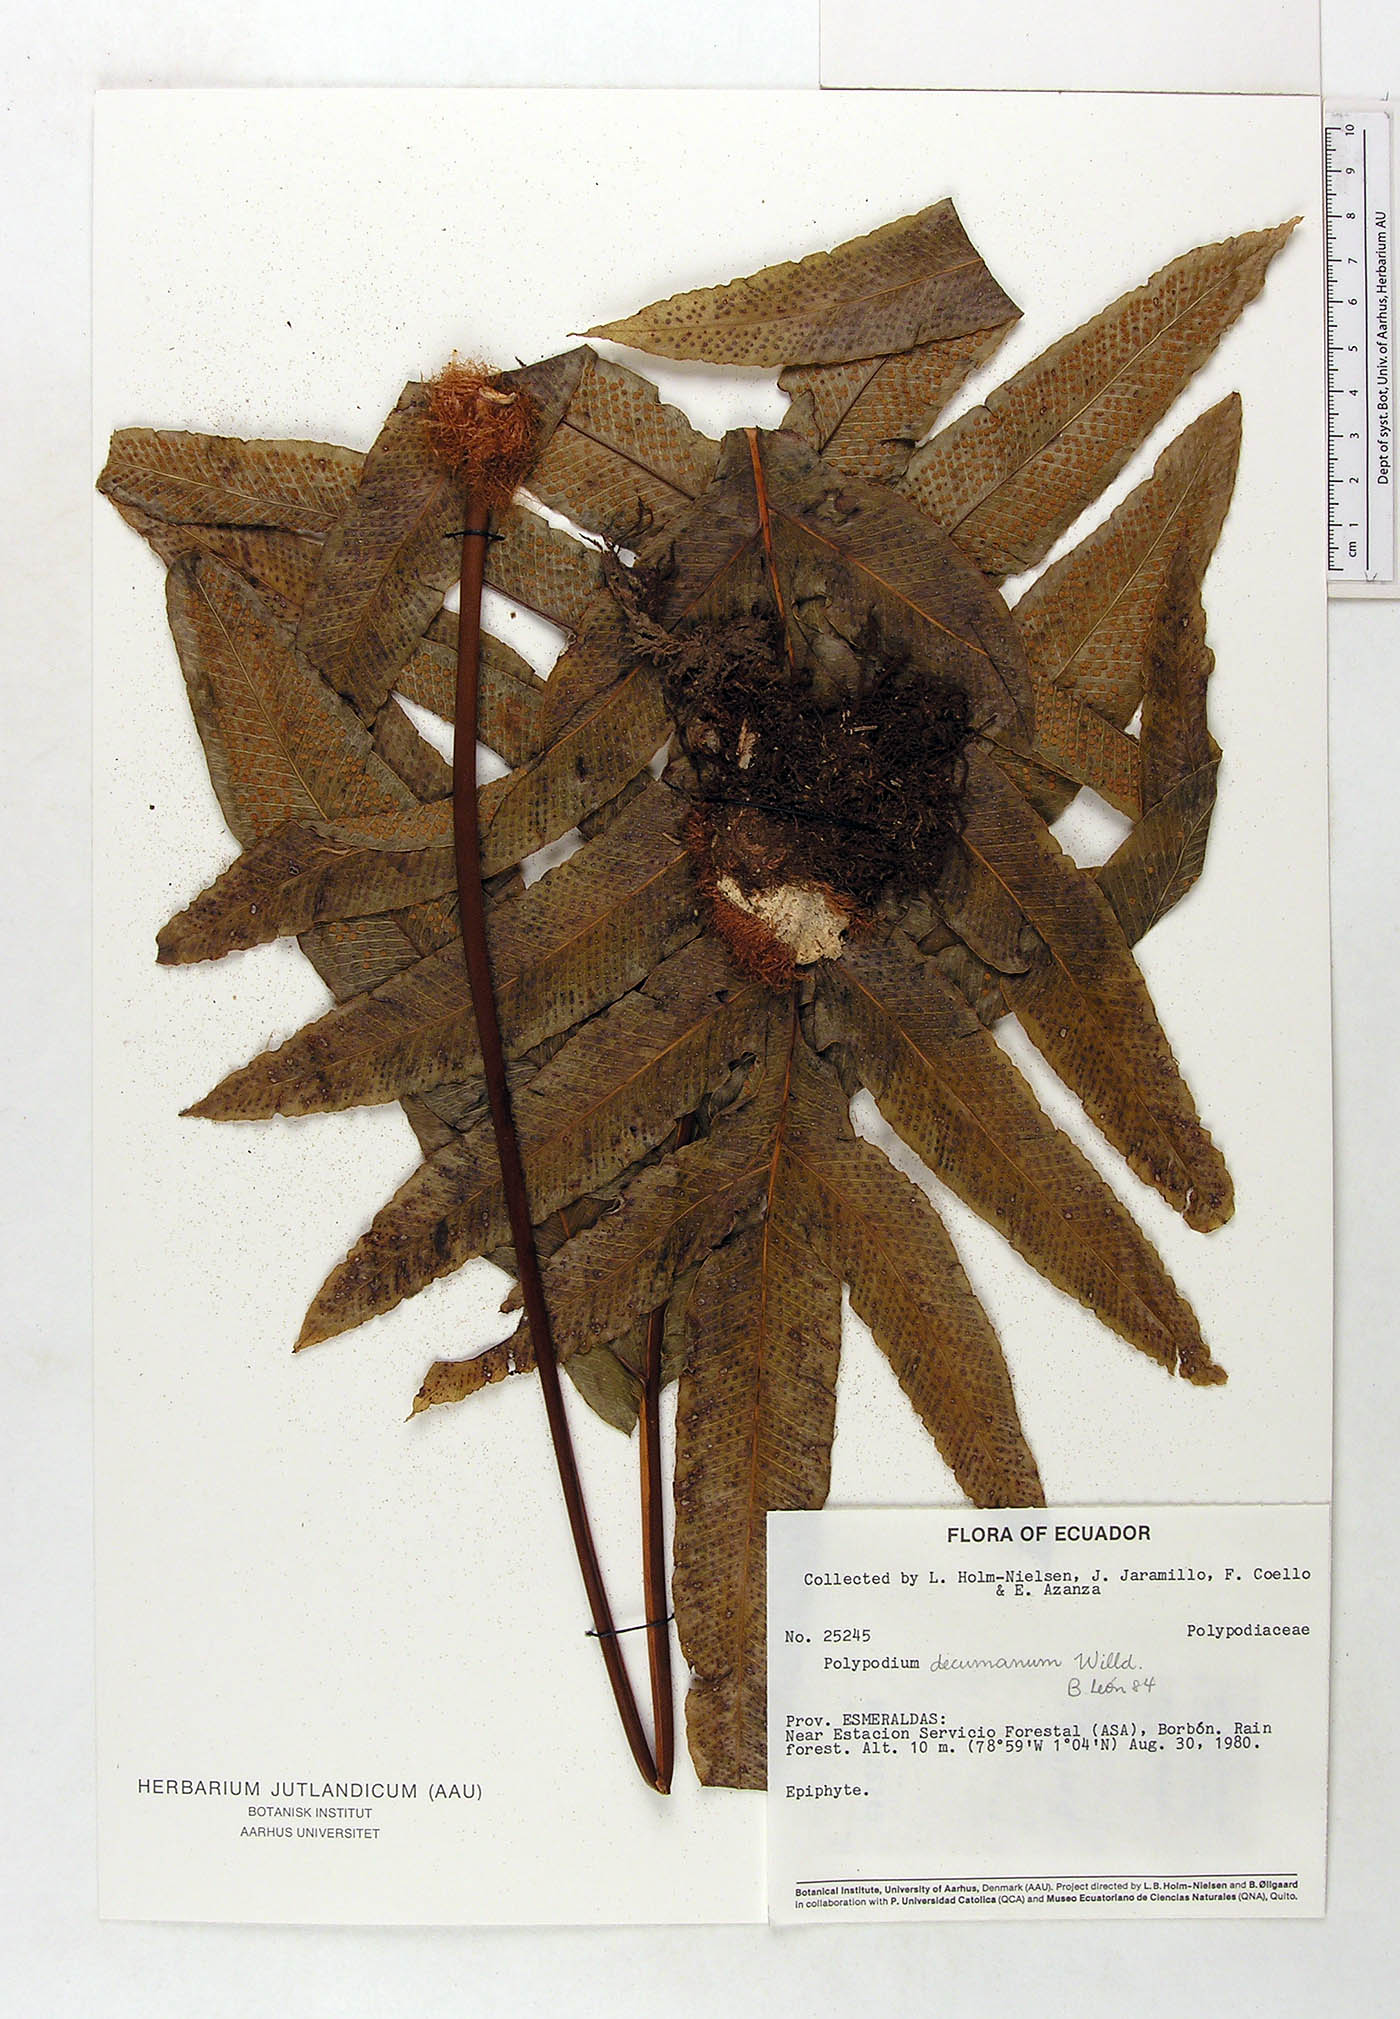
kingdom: Plantae
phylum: Tracheophyta
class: Polypodiopsida
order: Polypodiales
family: Polypodiaceae
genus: Phlebodium
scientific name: Phlebodium decumanum
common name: Golden polypod
